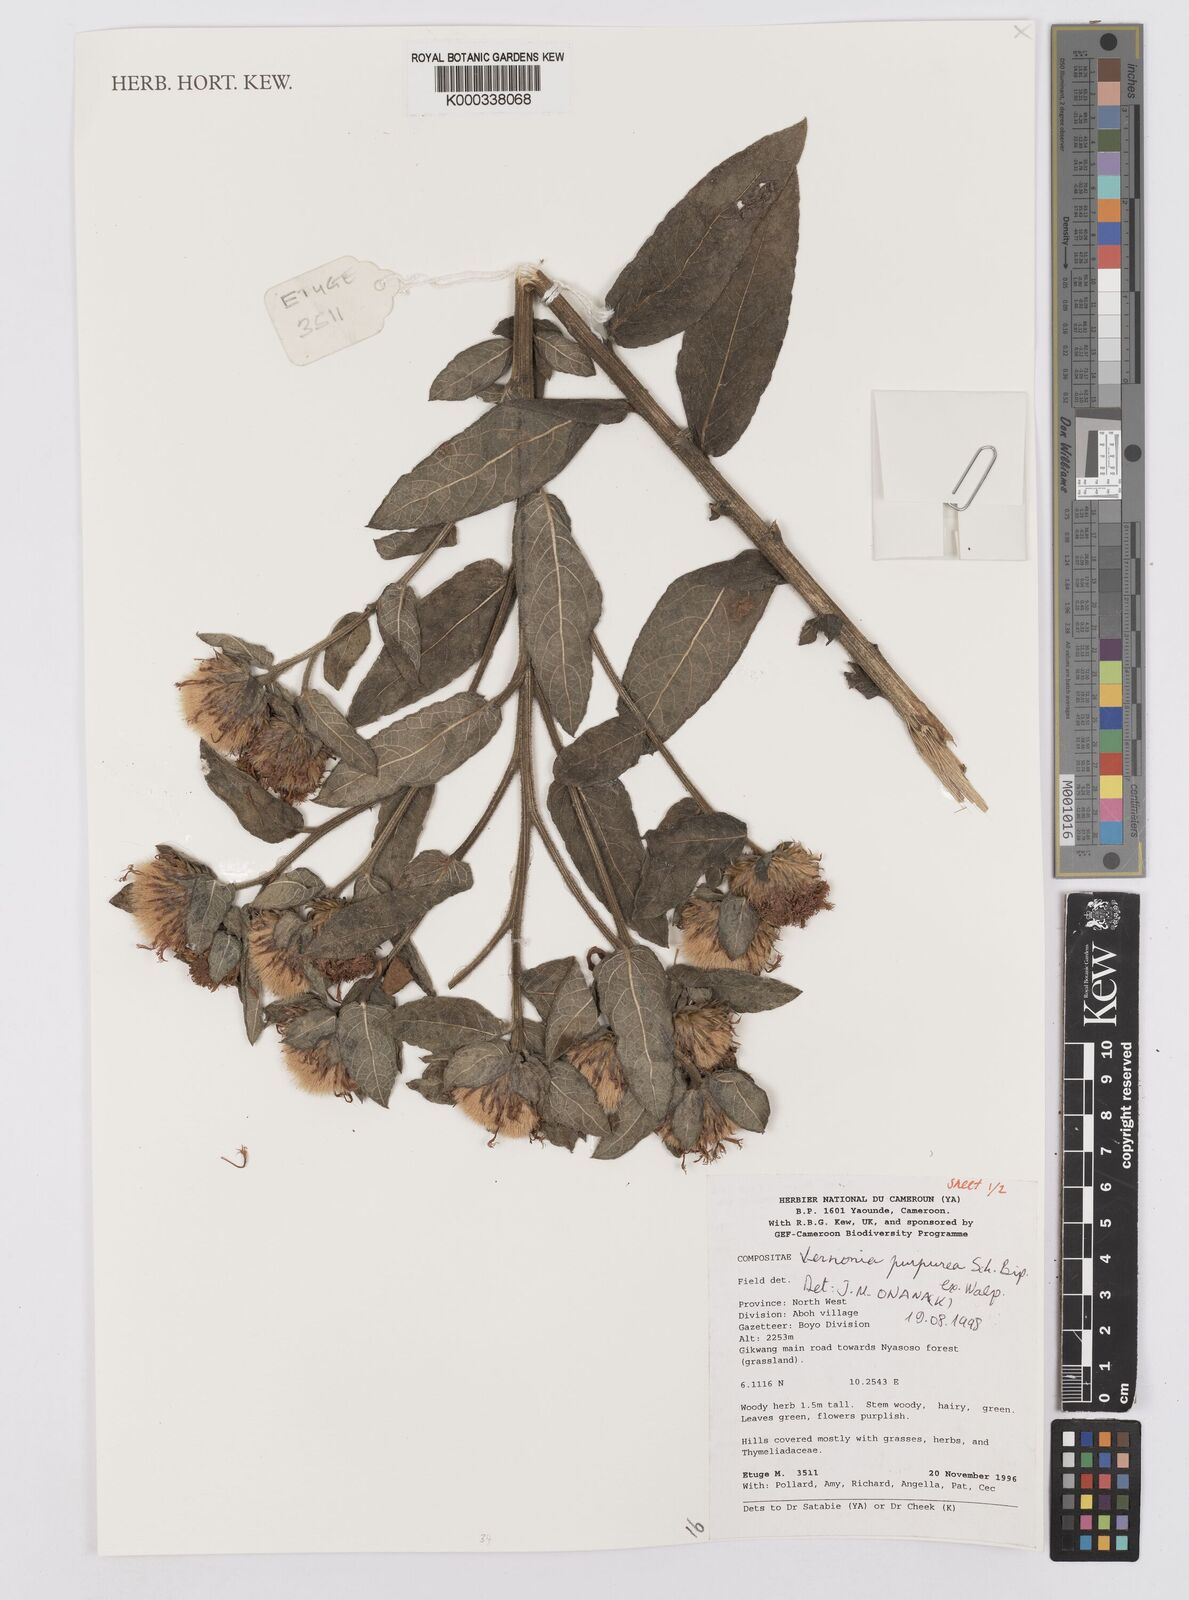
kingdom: Plantae
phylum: Tracheophyta
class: Magnoliopsida
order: Asterales
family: Asteraceae
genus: Vernonia
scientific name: Vernonia
